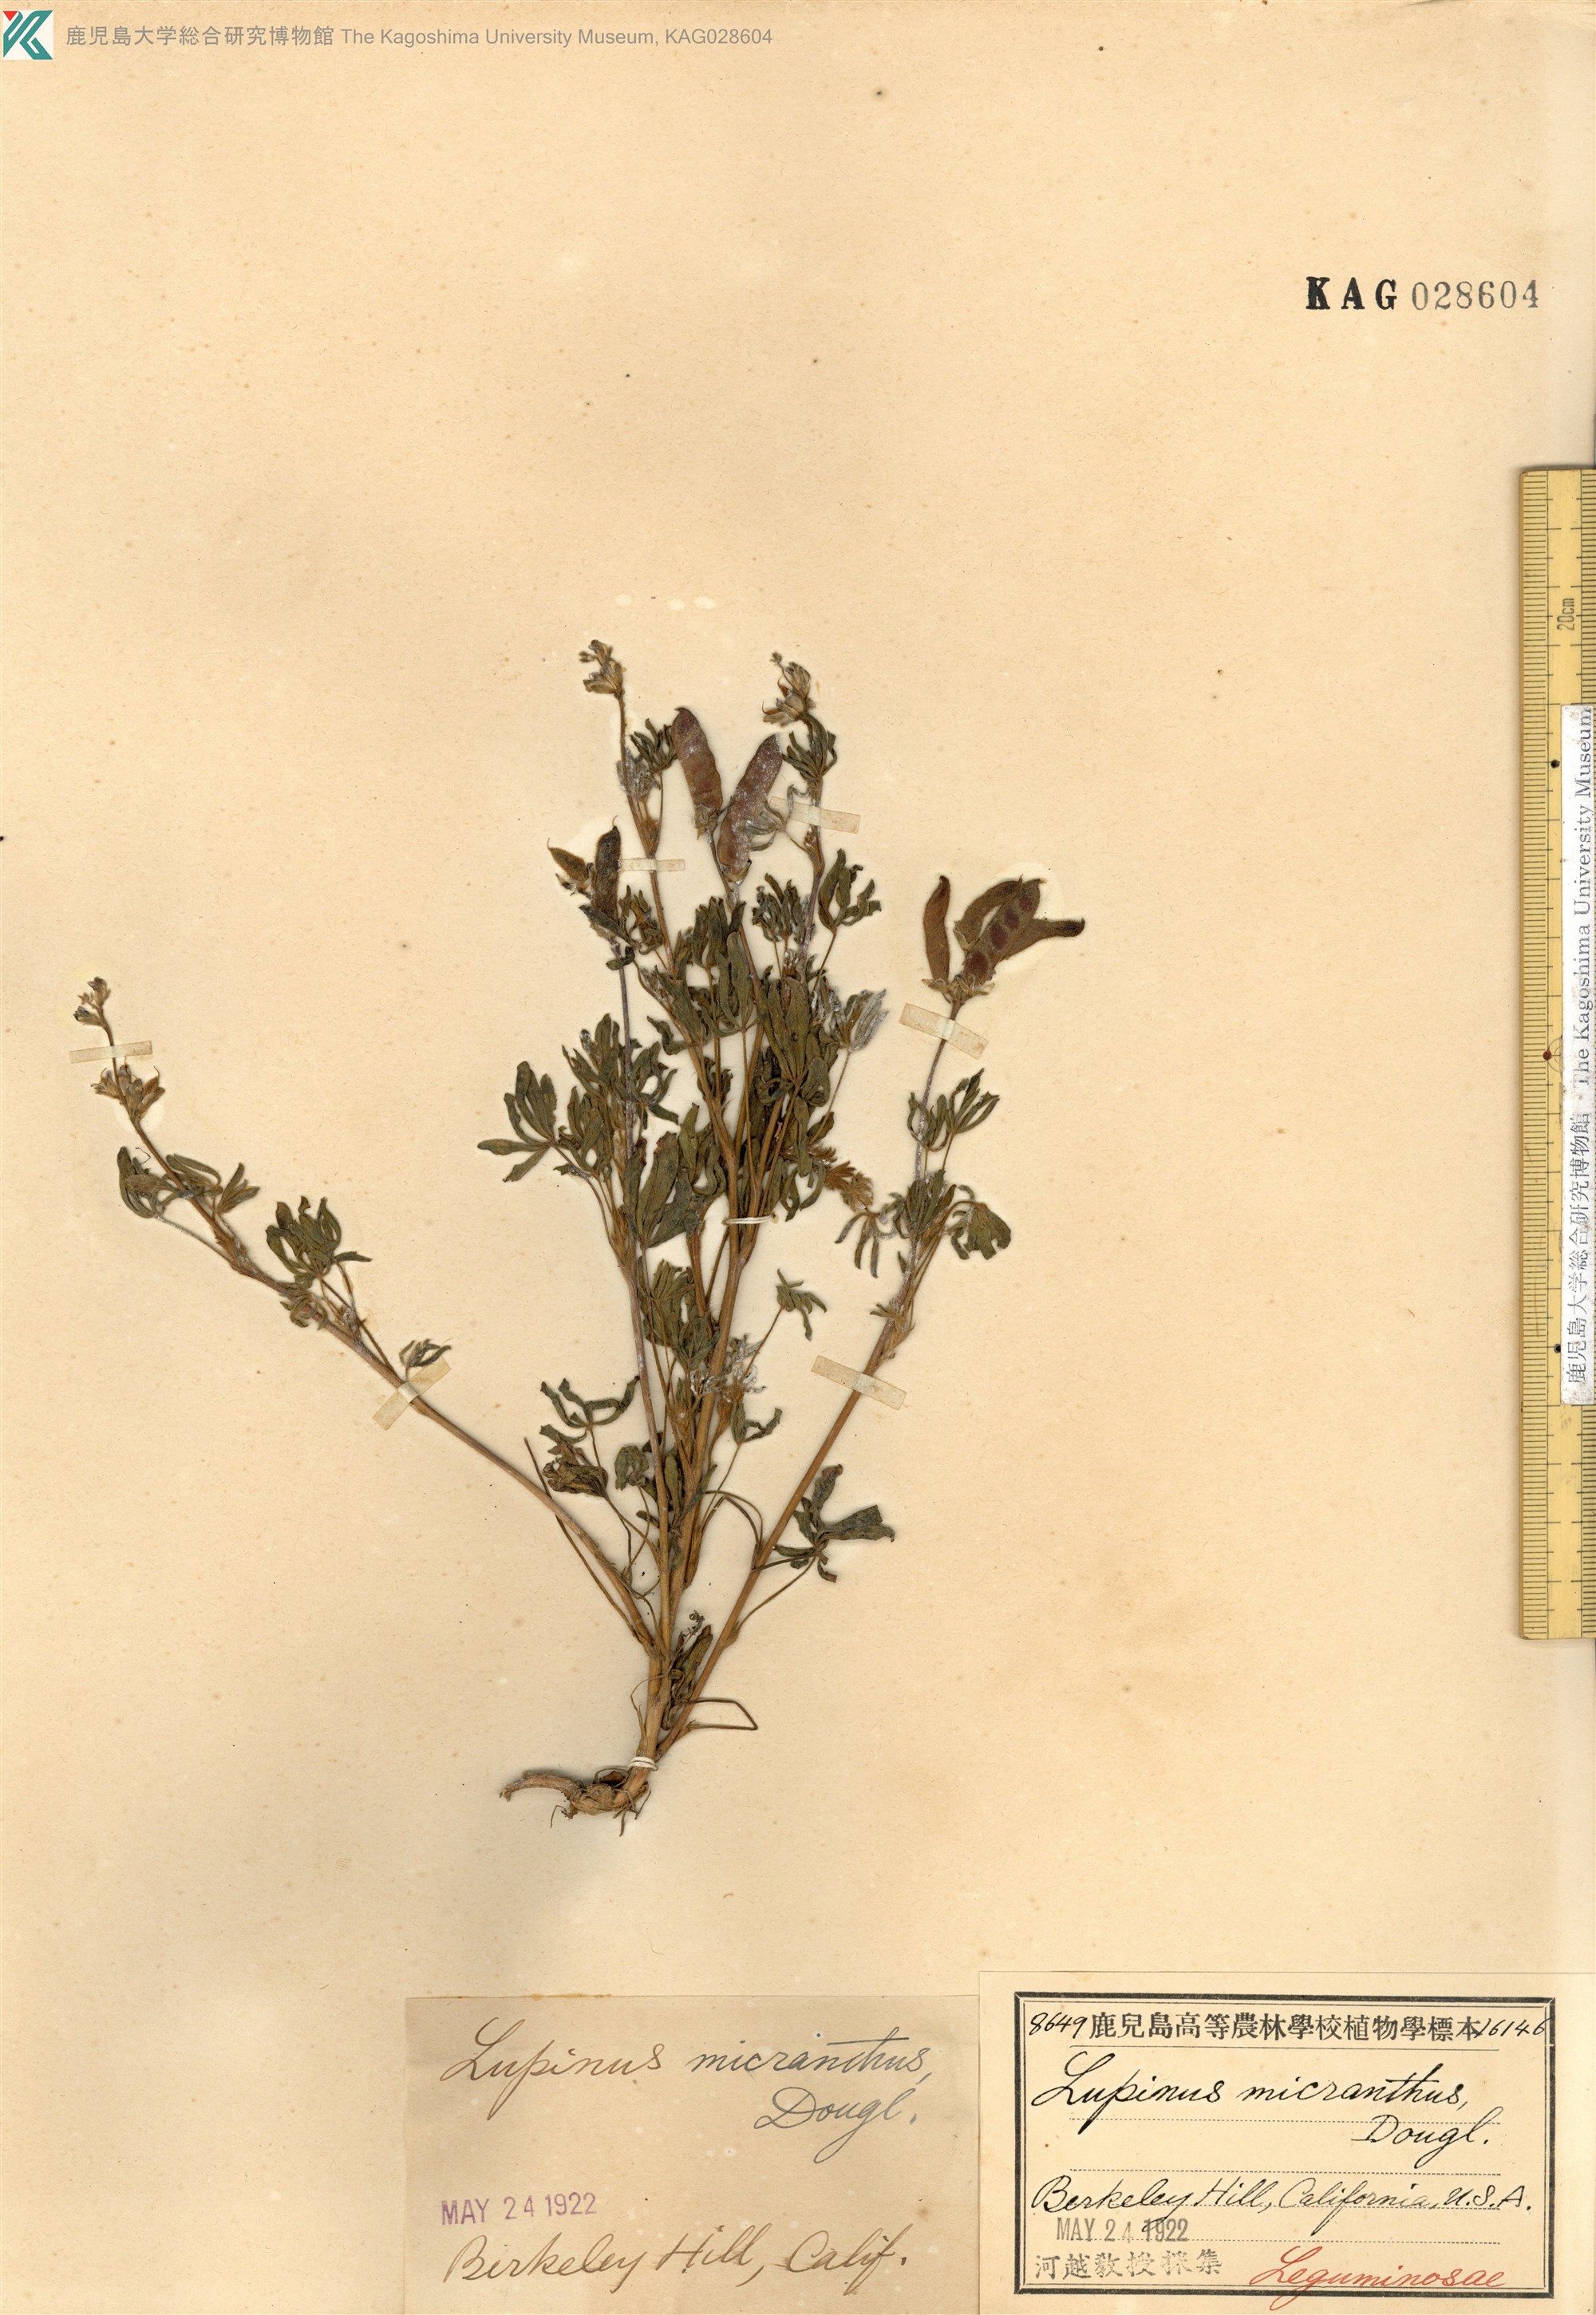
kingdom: Plantae
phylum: Tracheophyta
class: Magnoliopsida
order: Fabales
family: Fabaceae
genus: Lupinus
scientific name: Lupinus polycarpus
